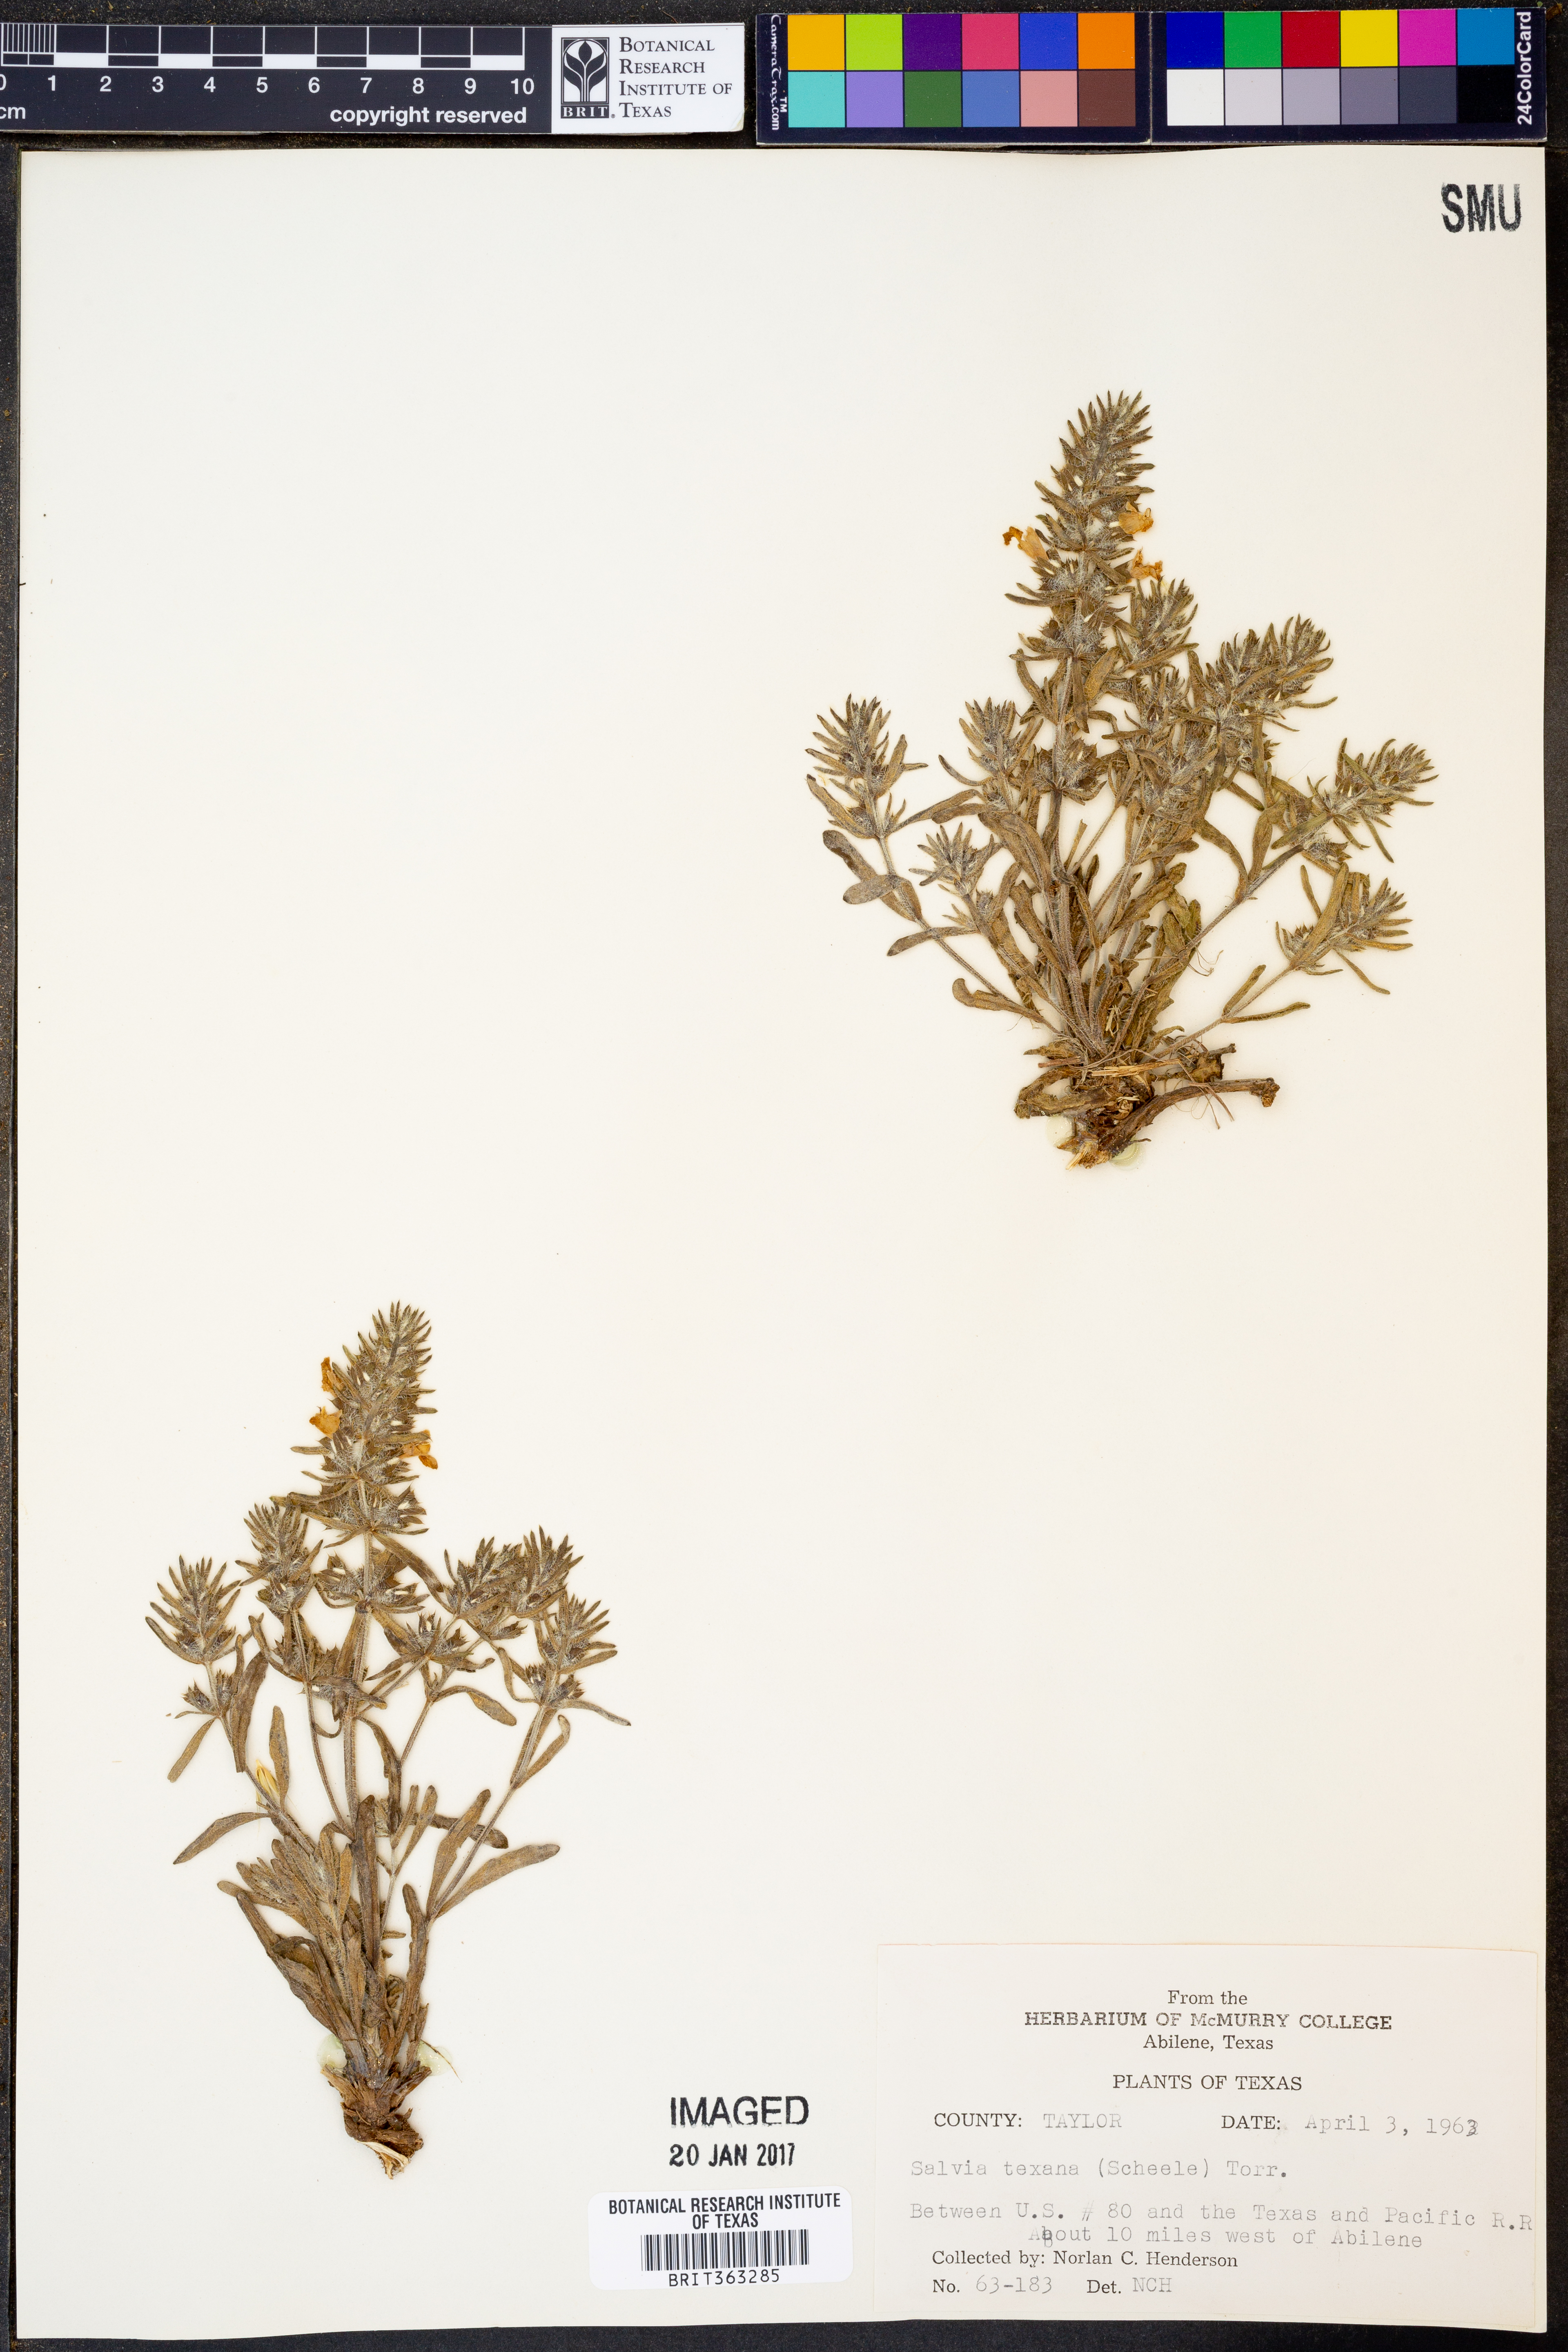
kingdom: Plantae
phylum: Tracheophyta
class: Magnoliopsida
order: Lamiales
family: Lamiaceae
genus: Salvia
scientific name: Salvia texana
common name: Texas sage
